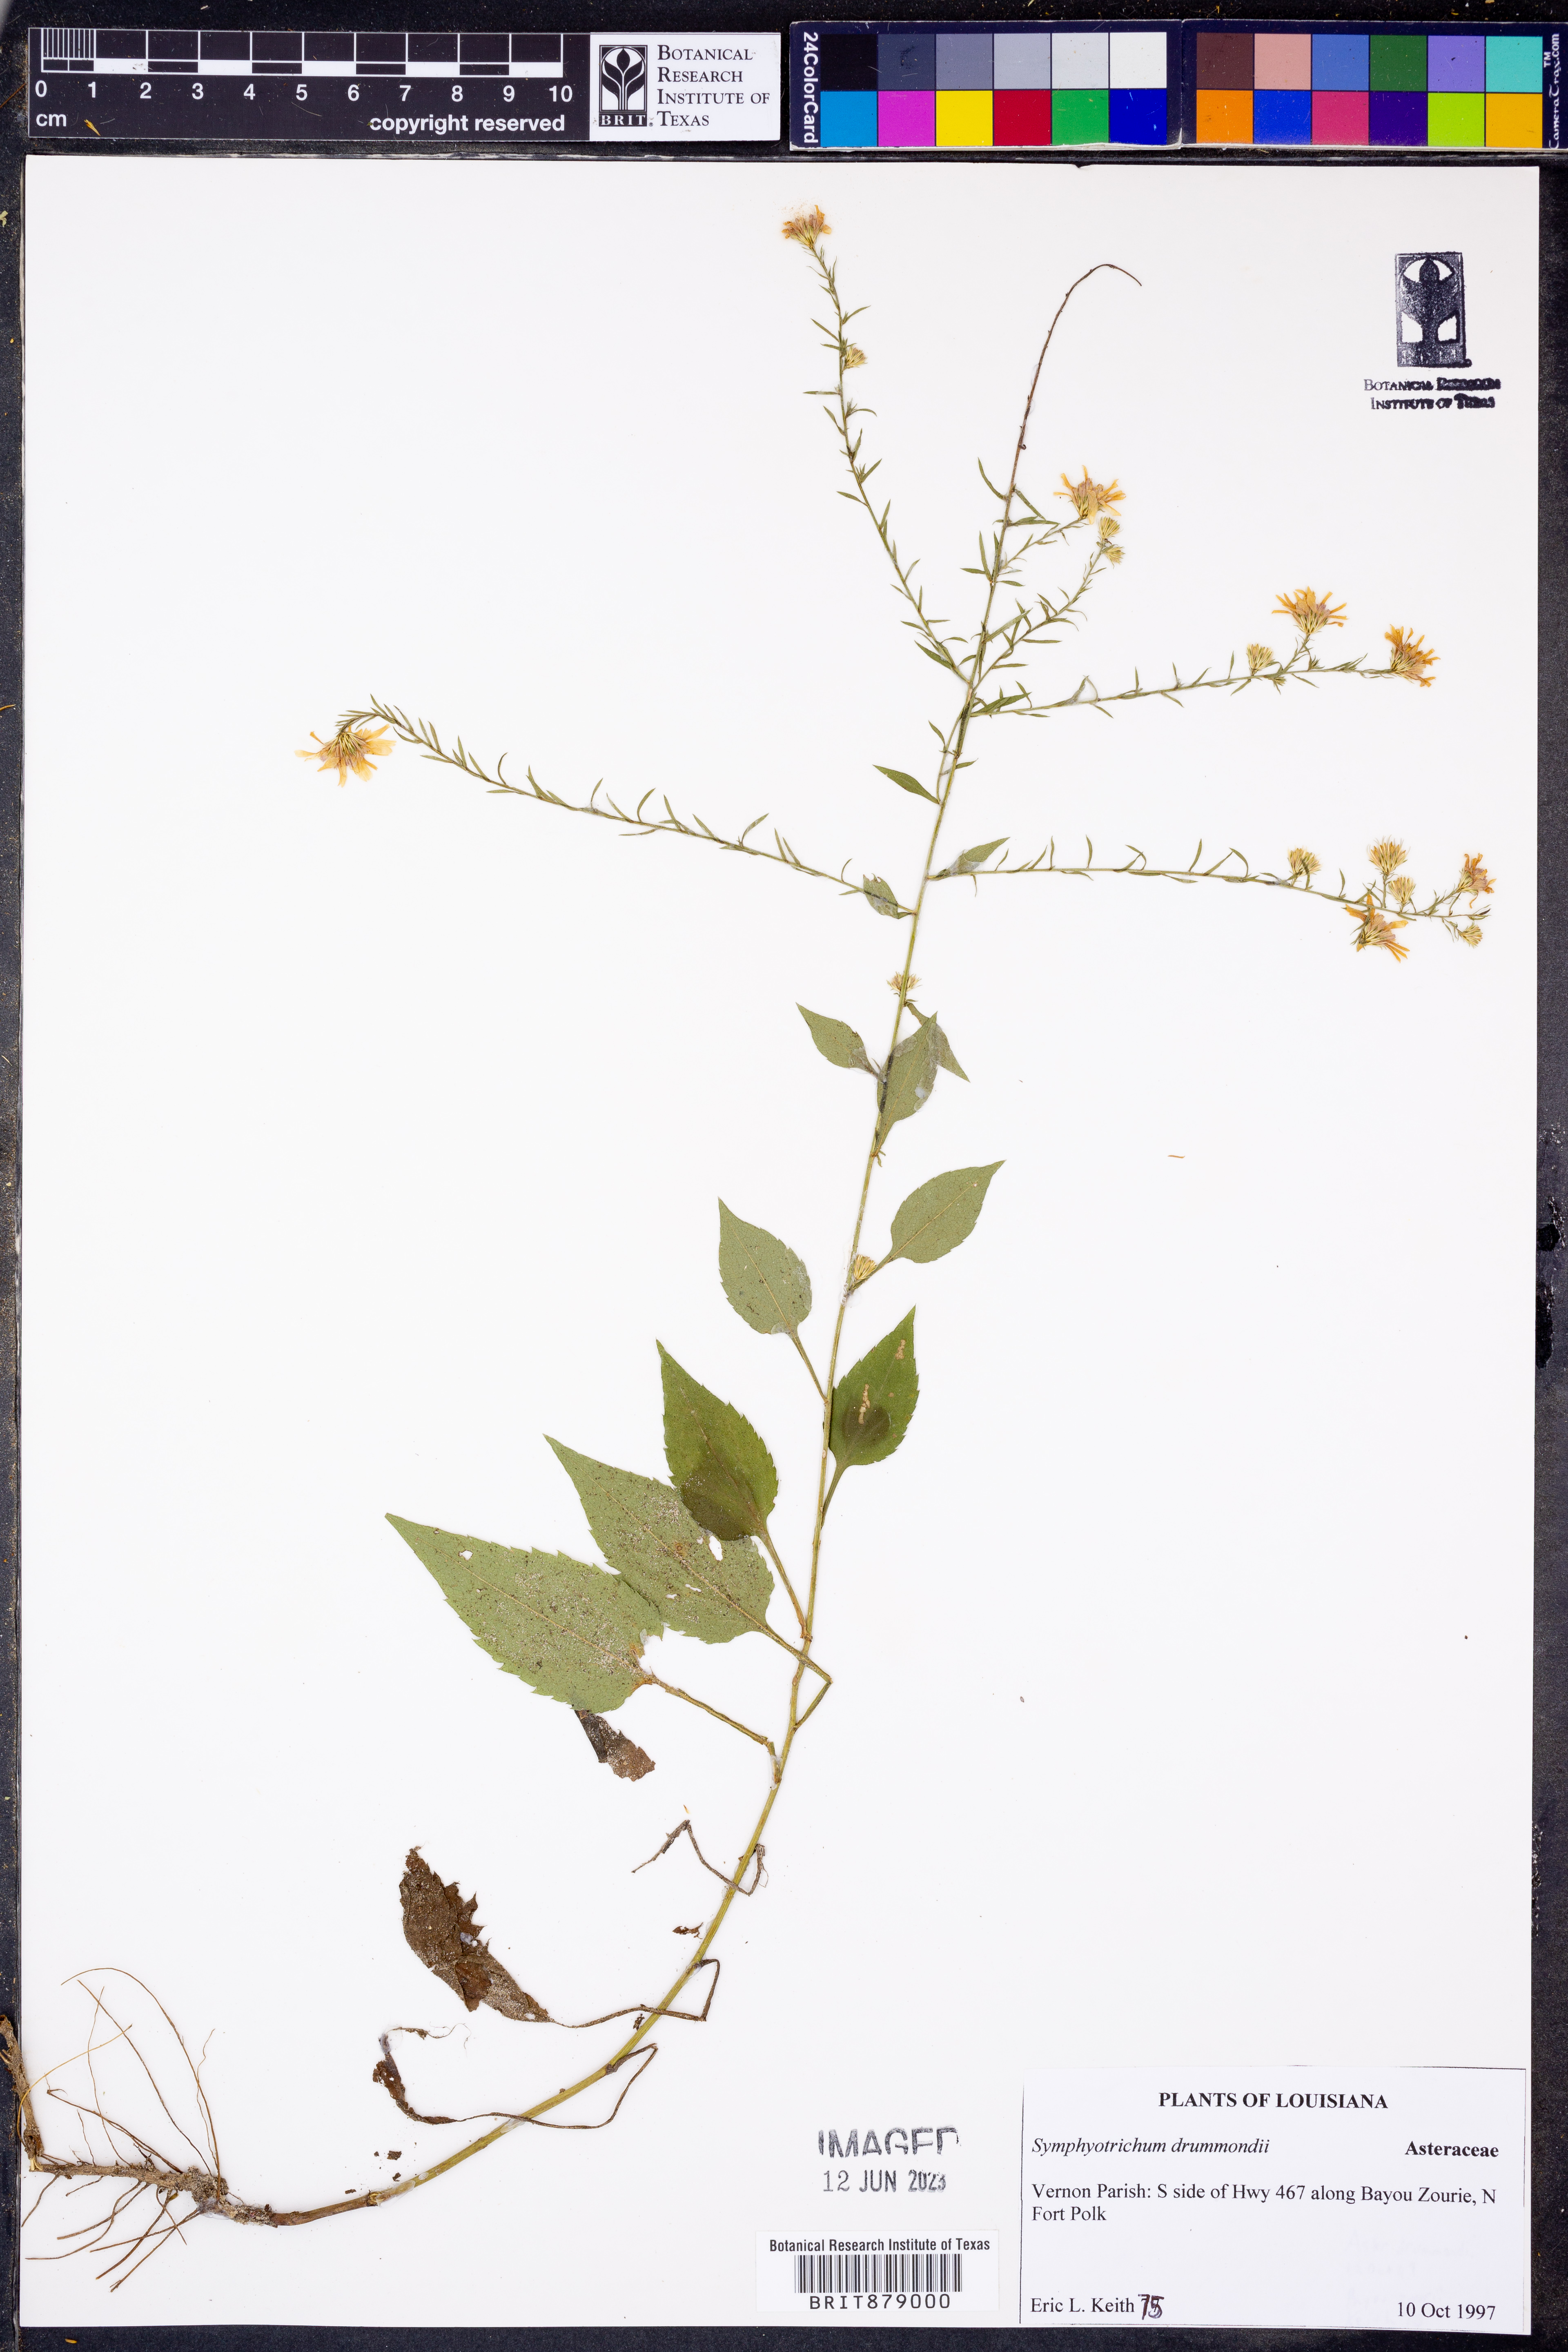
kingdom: Plantae
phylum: Tracheophyta
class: Magnoliopsida
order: Asterales
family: Asteraceae
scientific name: Asteraceae
